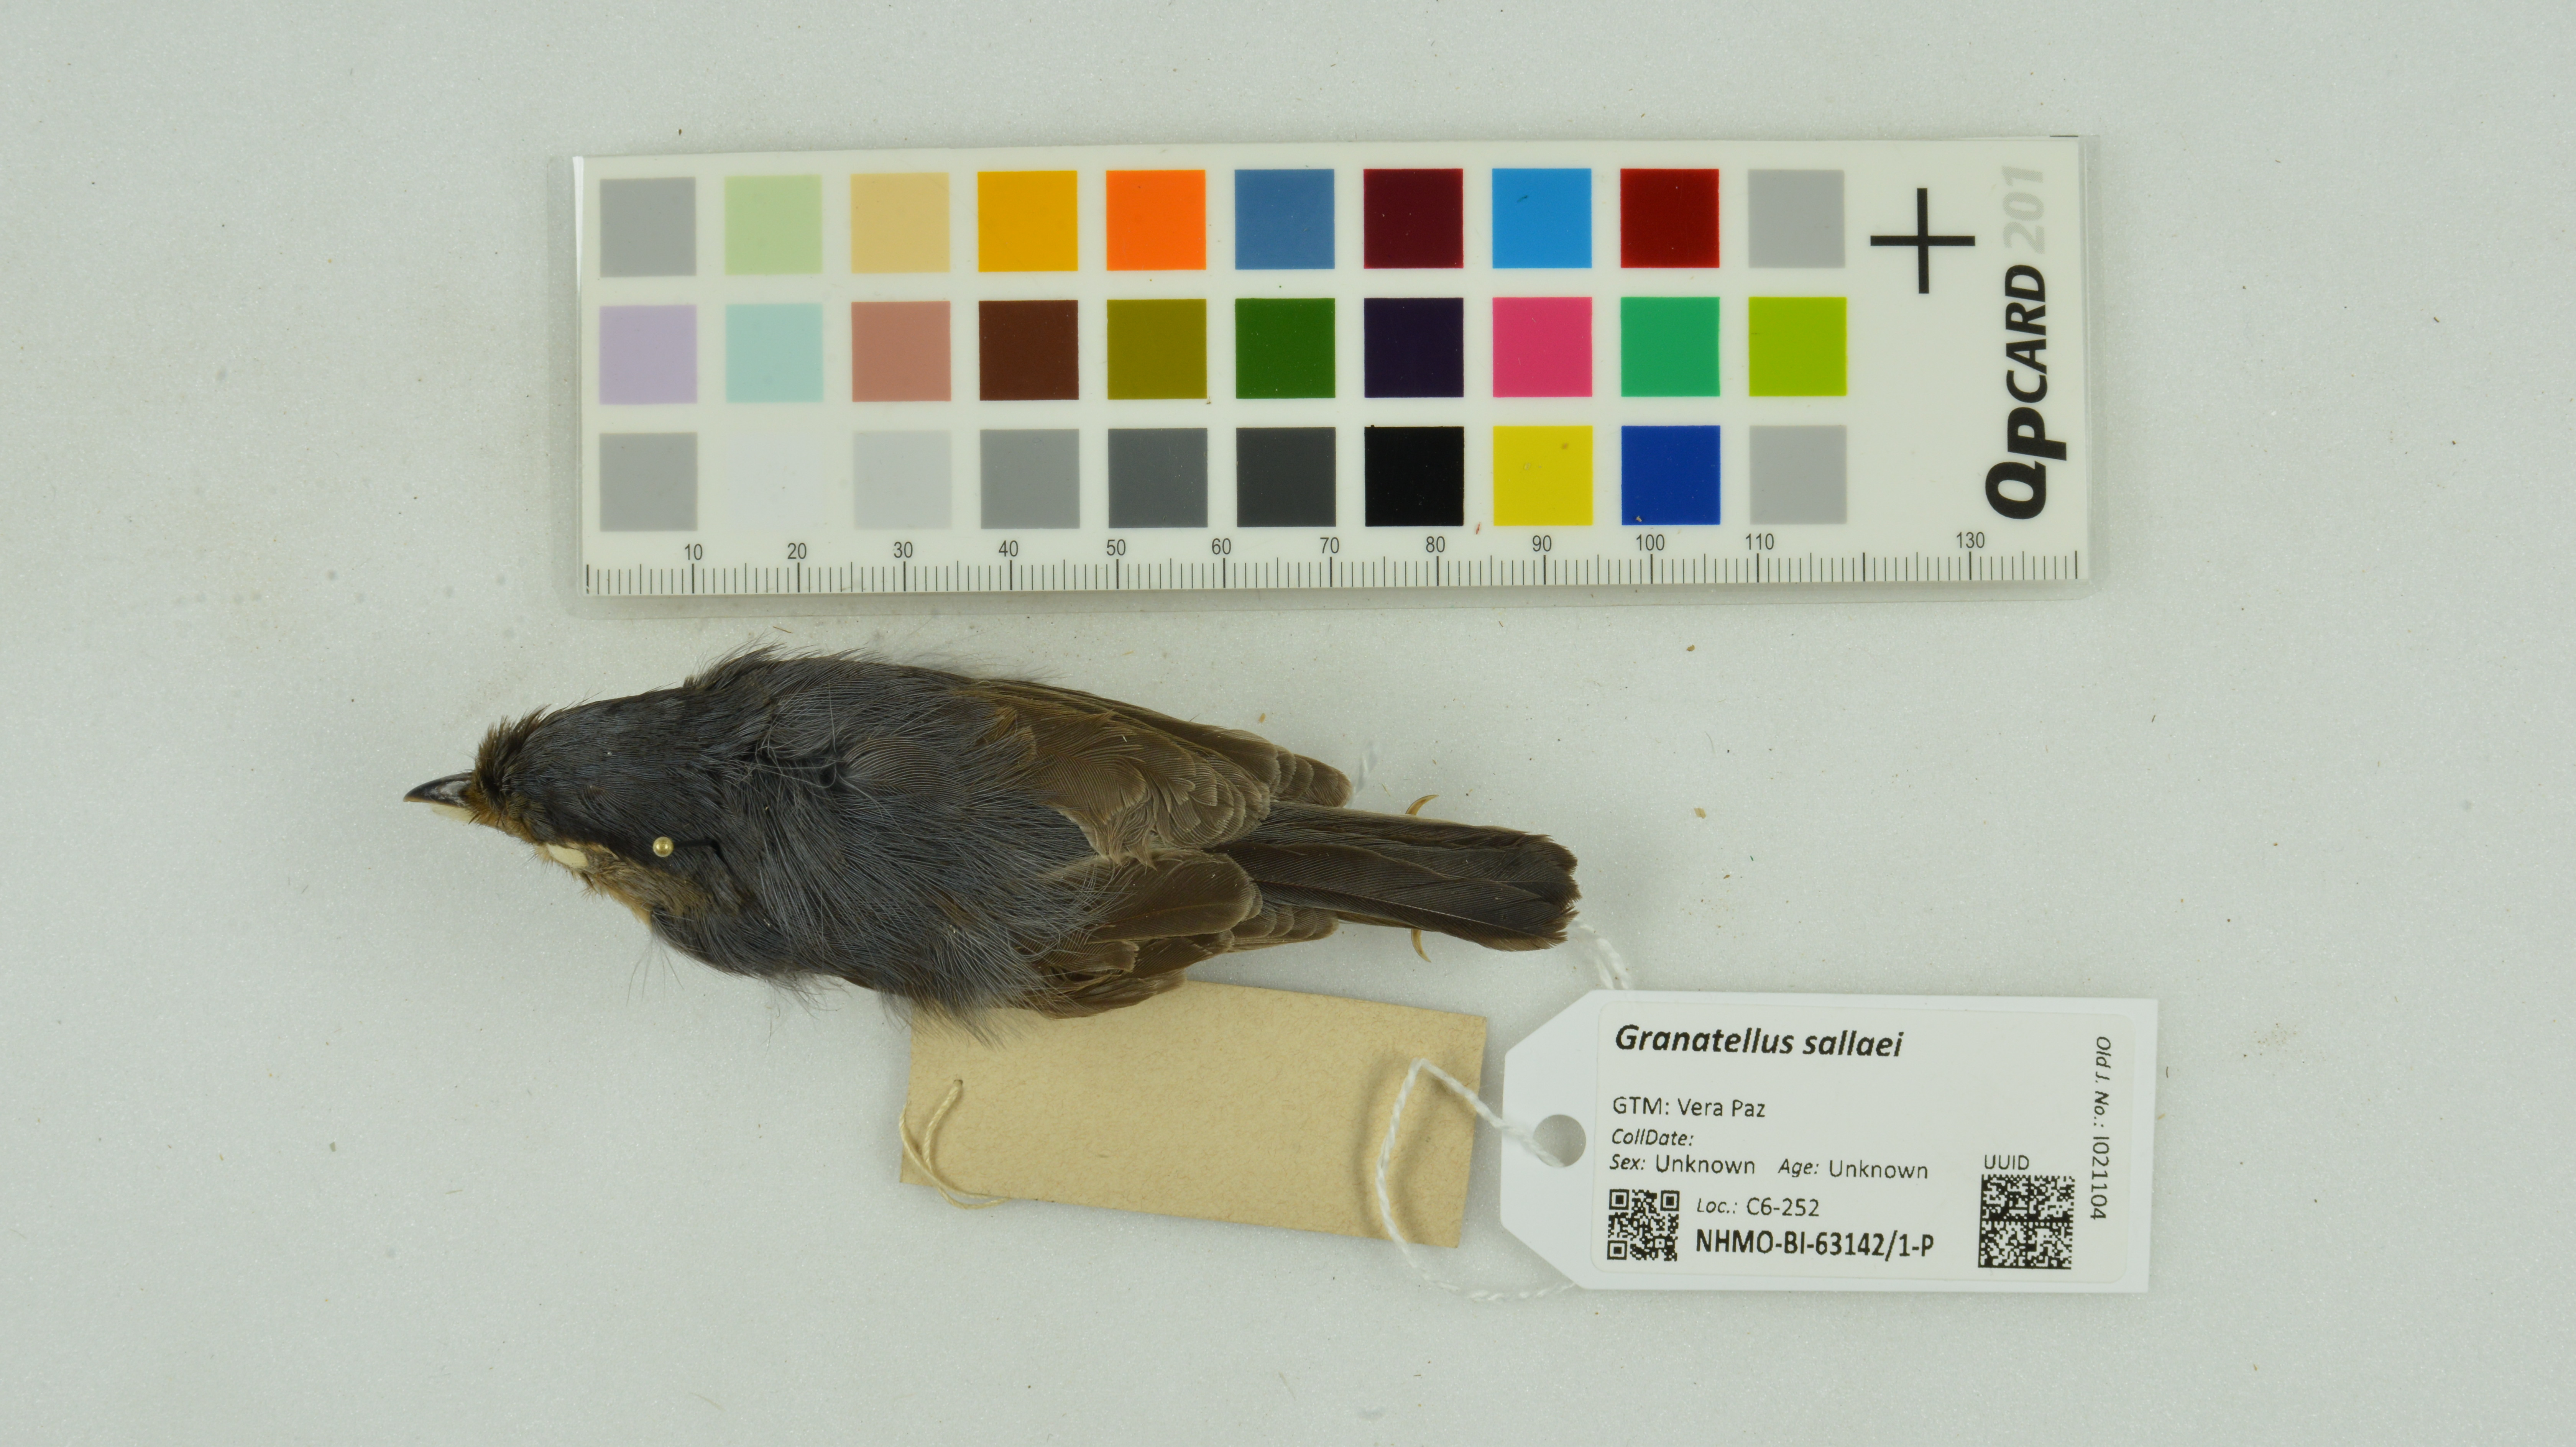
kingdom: Animalia
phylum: Chordata
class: Aves
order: Passeriformes
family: Cardinalidae
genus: Granatellus
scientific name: Granatellus sallaei
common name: Gray-throated chat
